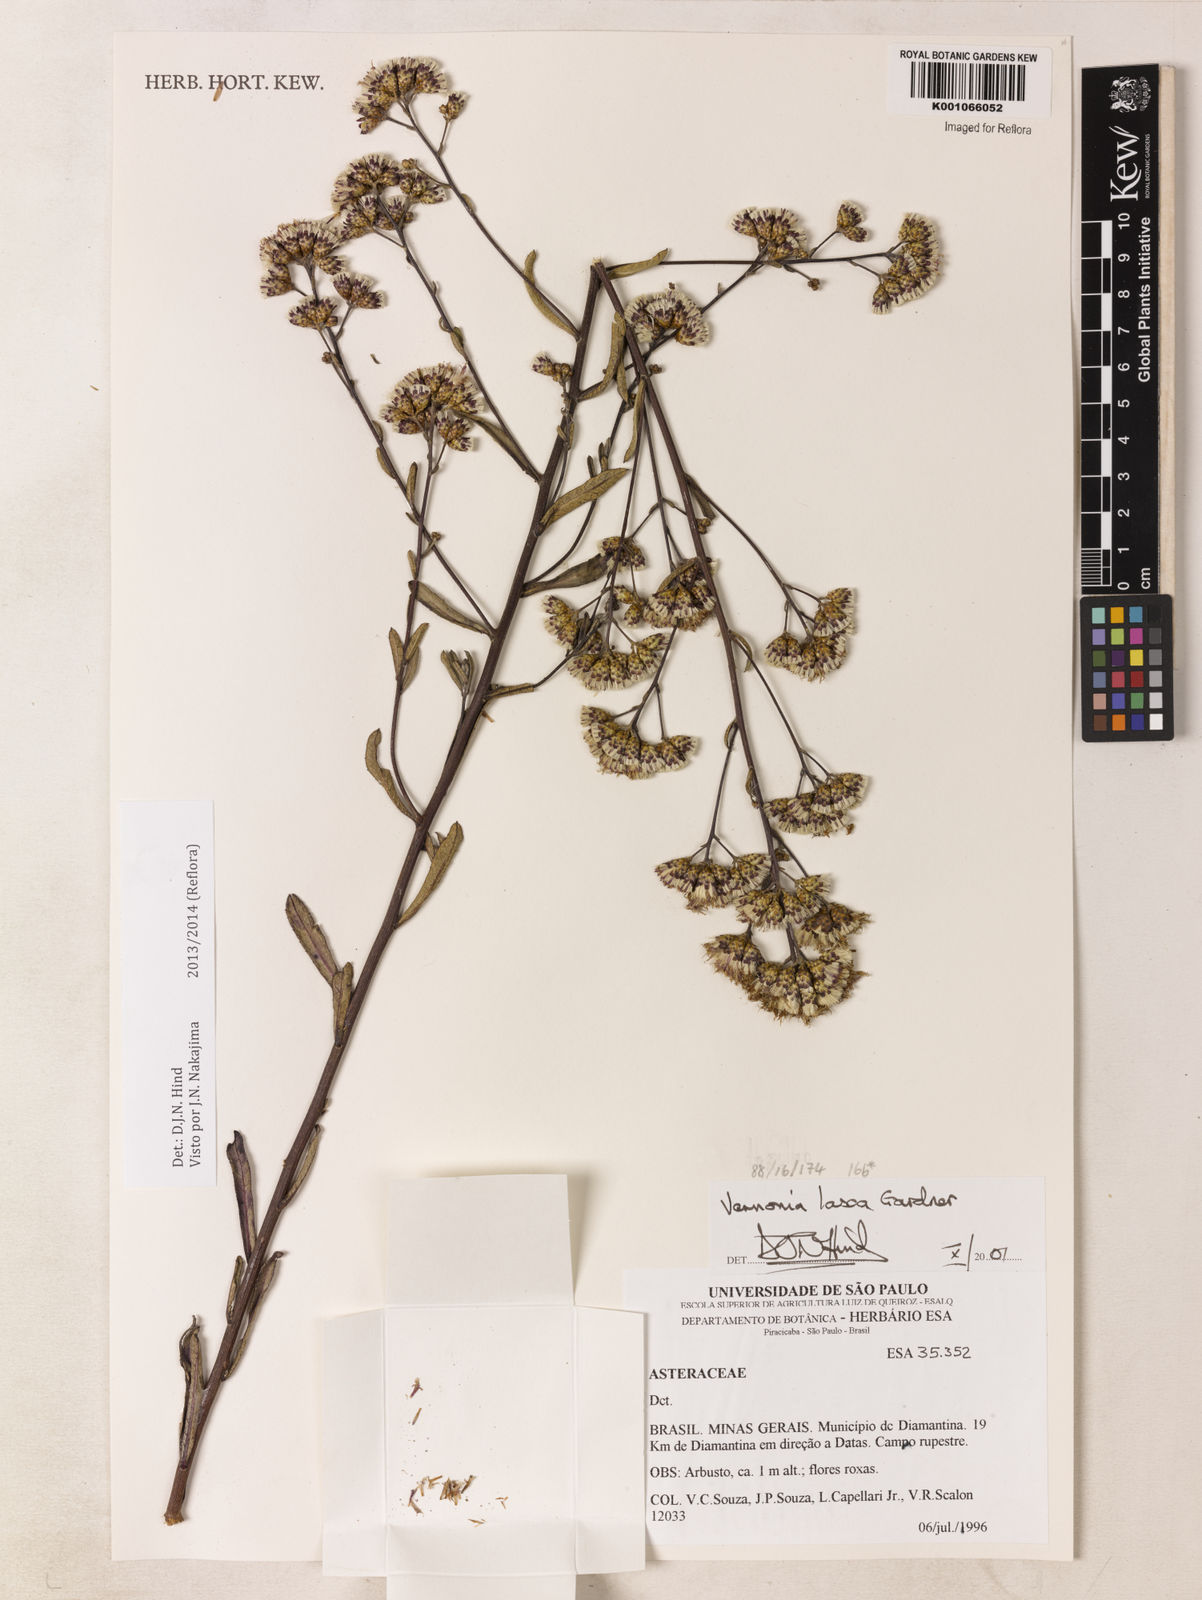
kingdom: Plantae
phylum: Tracheophyta
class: Magnoliopsida
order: Asterales
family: Asteraceae
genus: Vernonanthura
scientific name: Vernonanthura laxa
